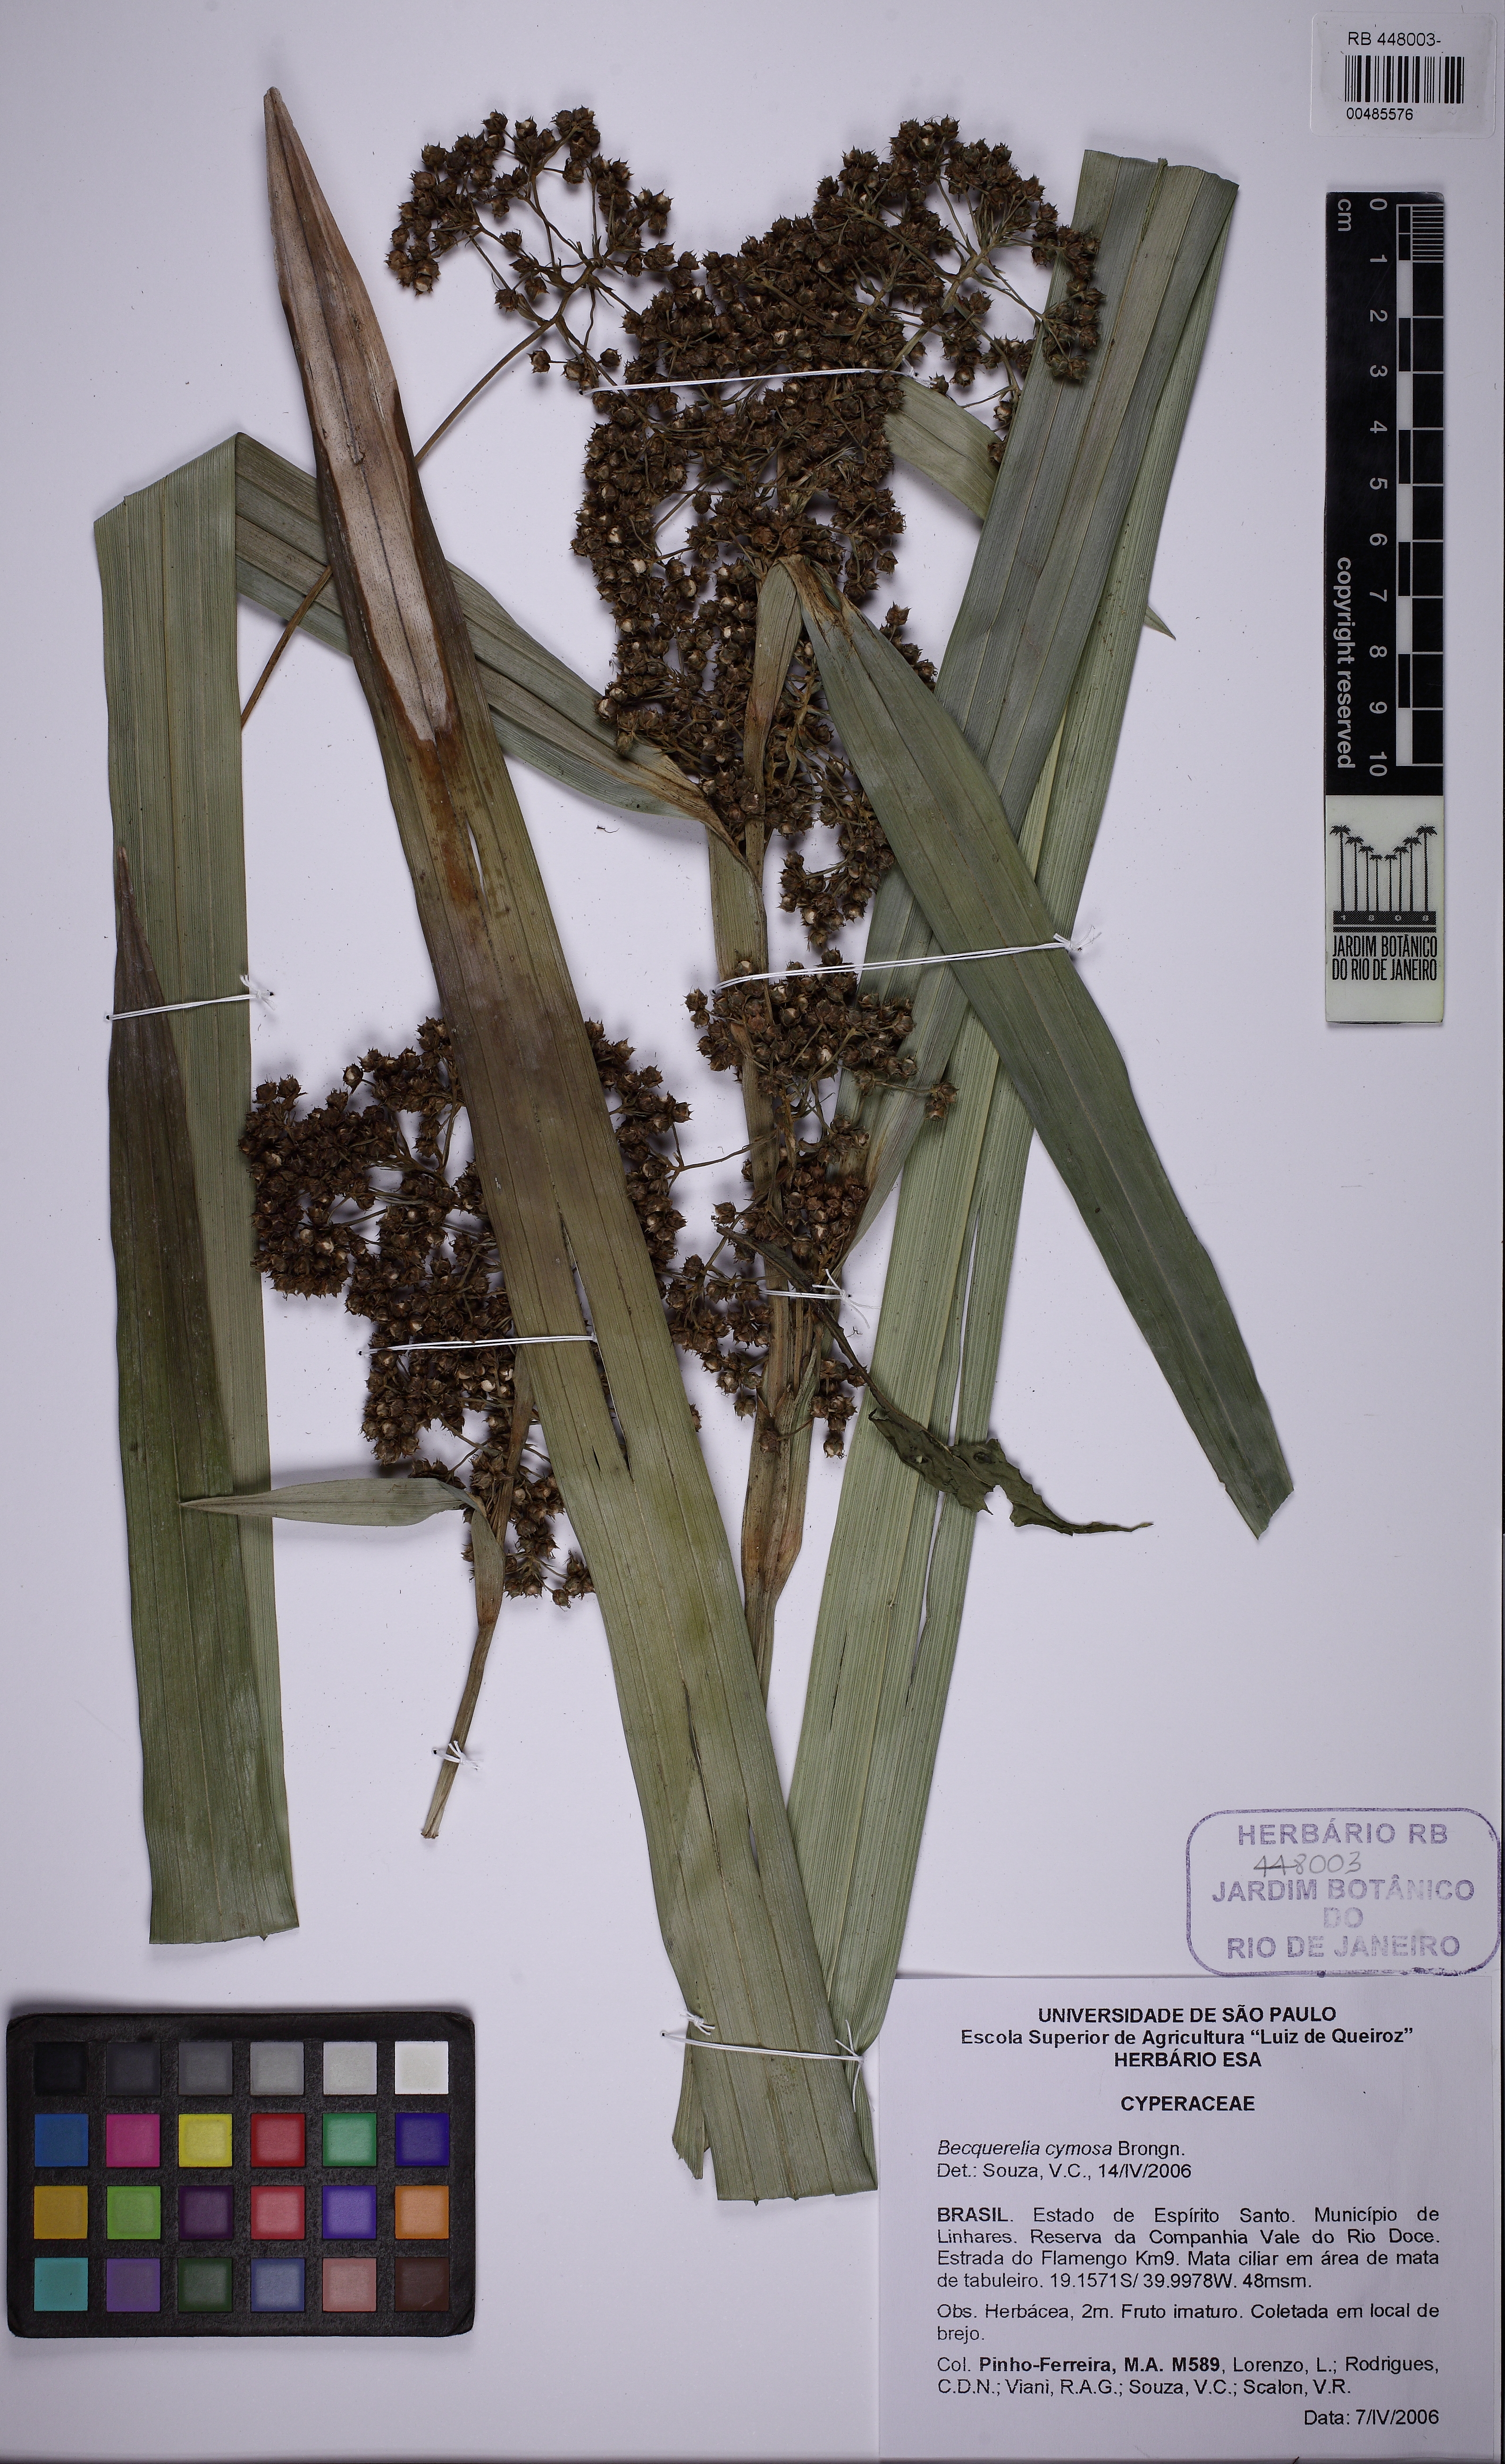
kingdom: Plantae
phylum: Tracheophyta
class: Liliopsida
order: Poales
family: Cyperaceae
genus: Becquerelia
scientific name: Becquerelia cymosa
